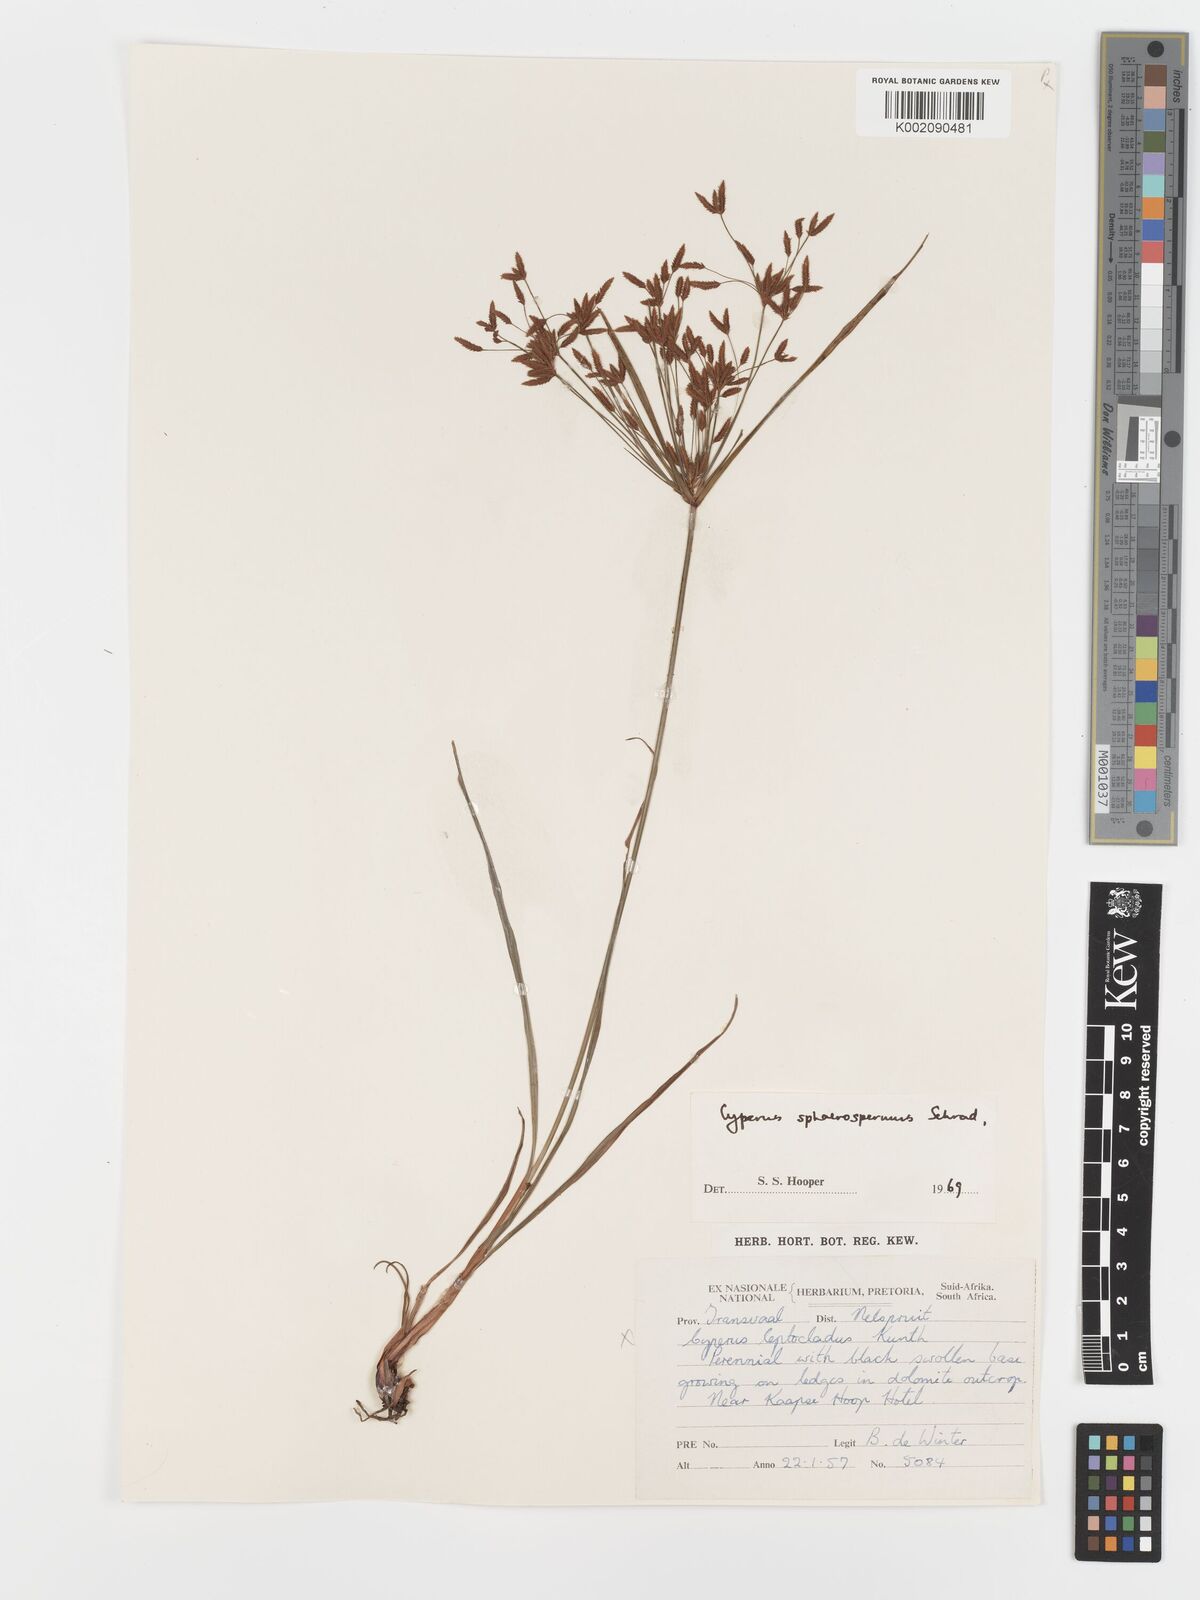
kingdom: Plantae
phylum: Tracheophyta
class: Liliopsida
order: Poales
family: Cyperaceae
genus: Cyperus
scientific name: Cyperus sphaerospermus
